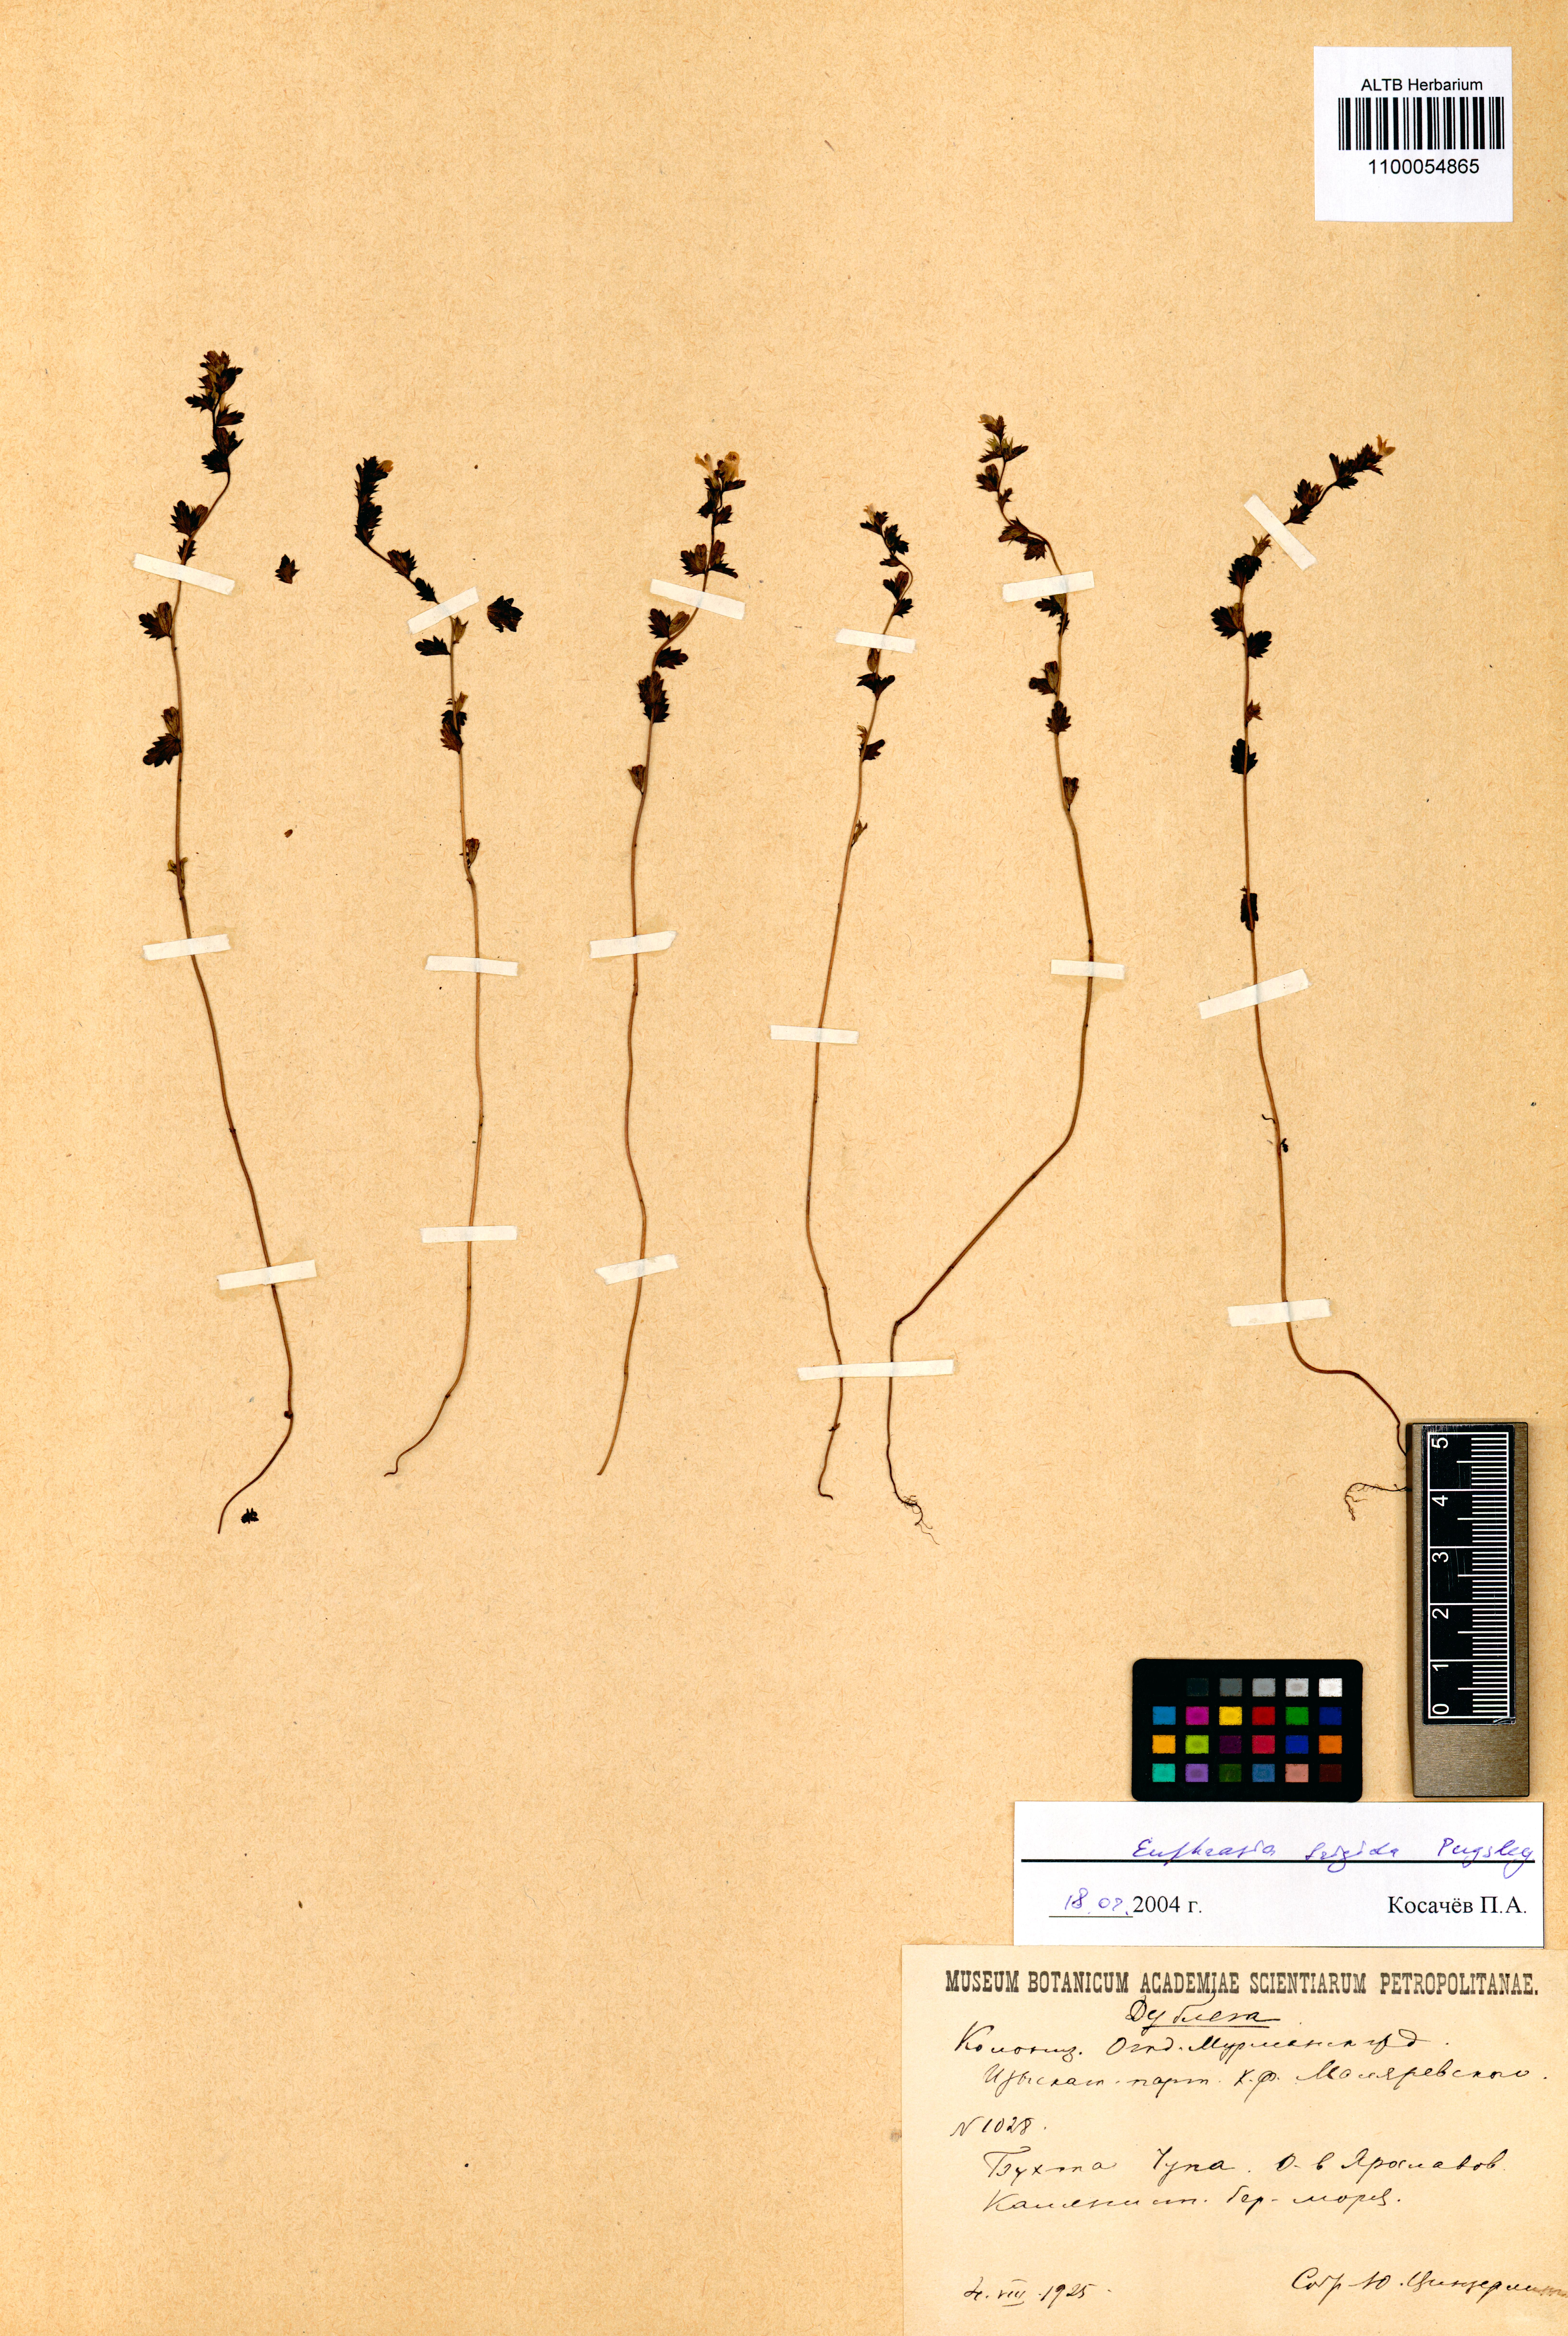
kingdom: Plantae
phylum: Tracheophyta
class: Magnoliopsida
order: Lamiales
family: Orobanchaceae
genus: Euphrasia
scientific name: Euphrasia frigida
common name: An eyebright
